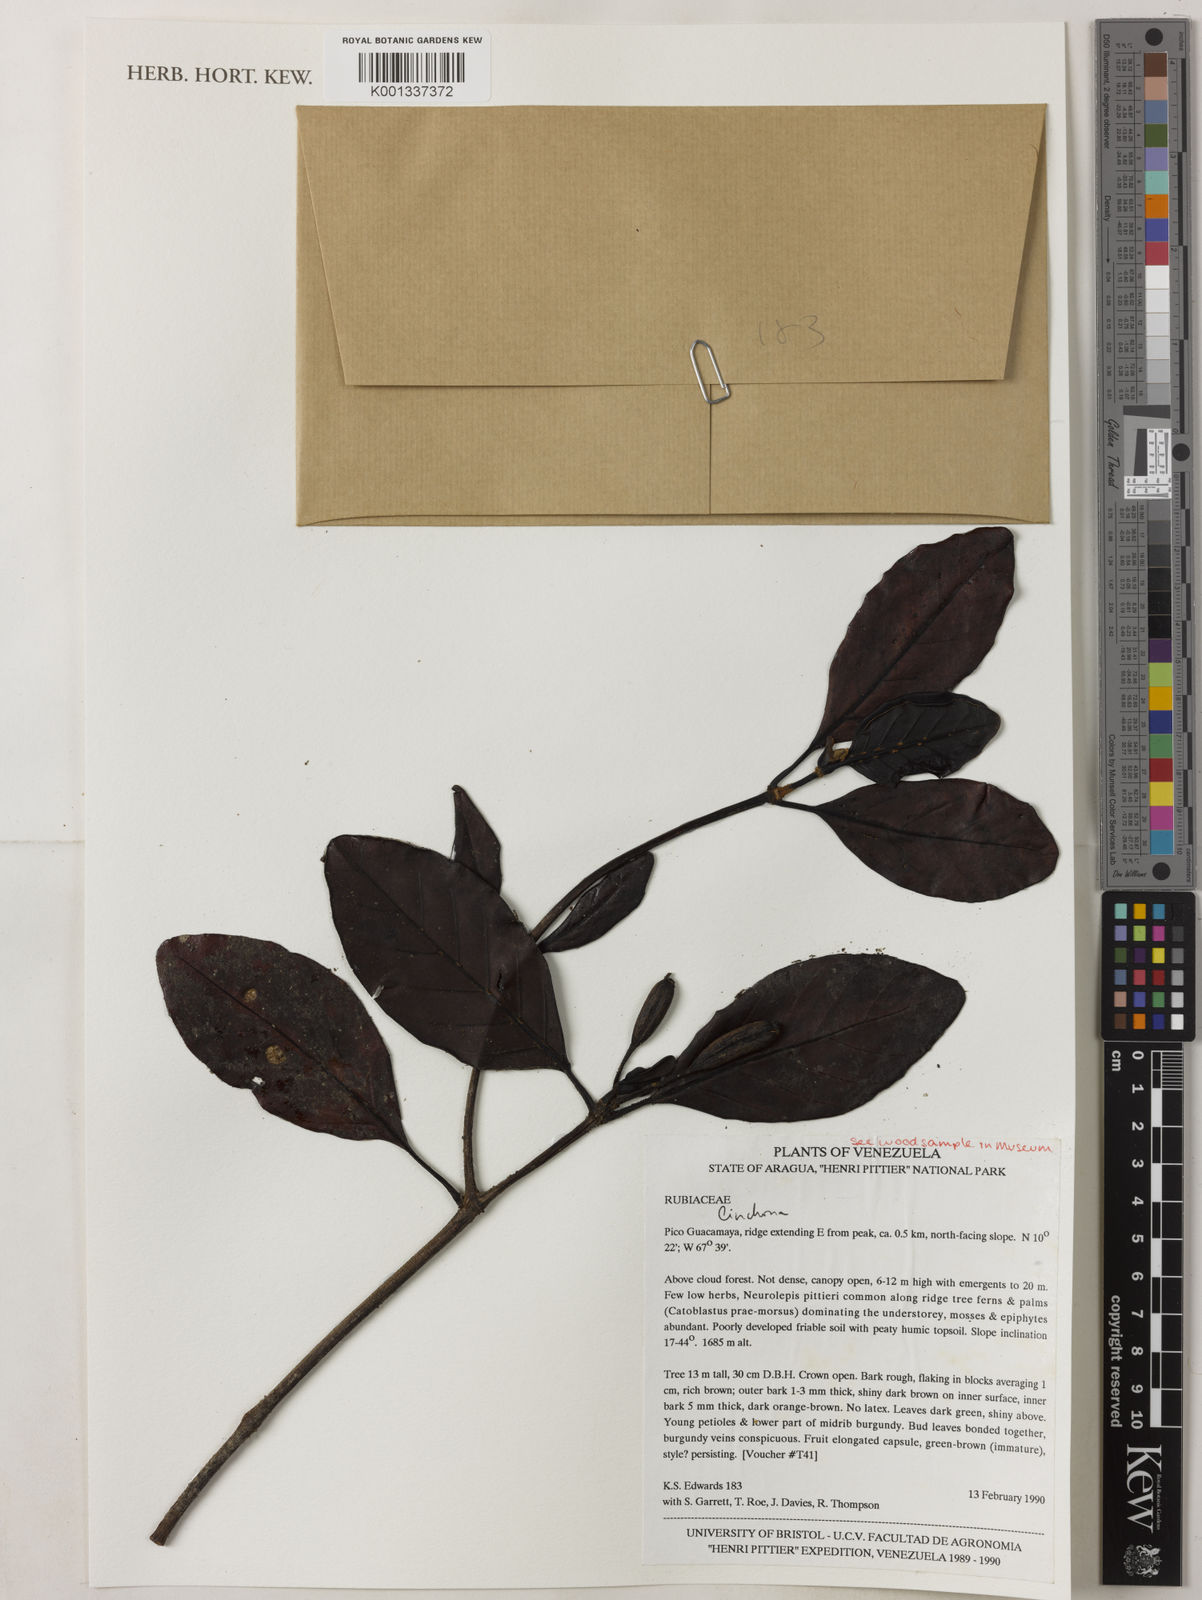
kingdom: Plantae
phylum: Tracheophyta
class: Magnoliopsida
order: Gentianales
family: Rubiaceae
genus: Cinchona
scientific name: Cinchona
